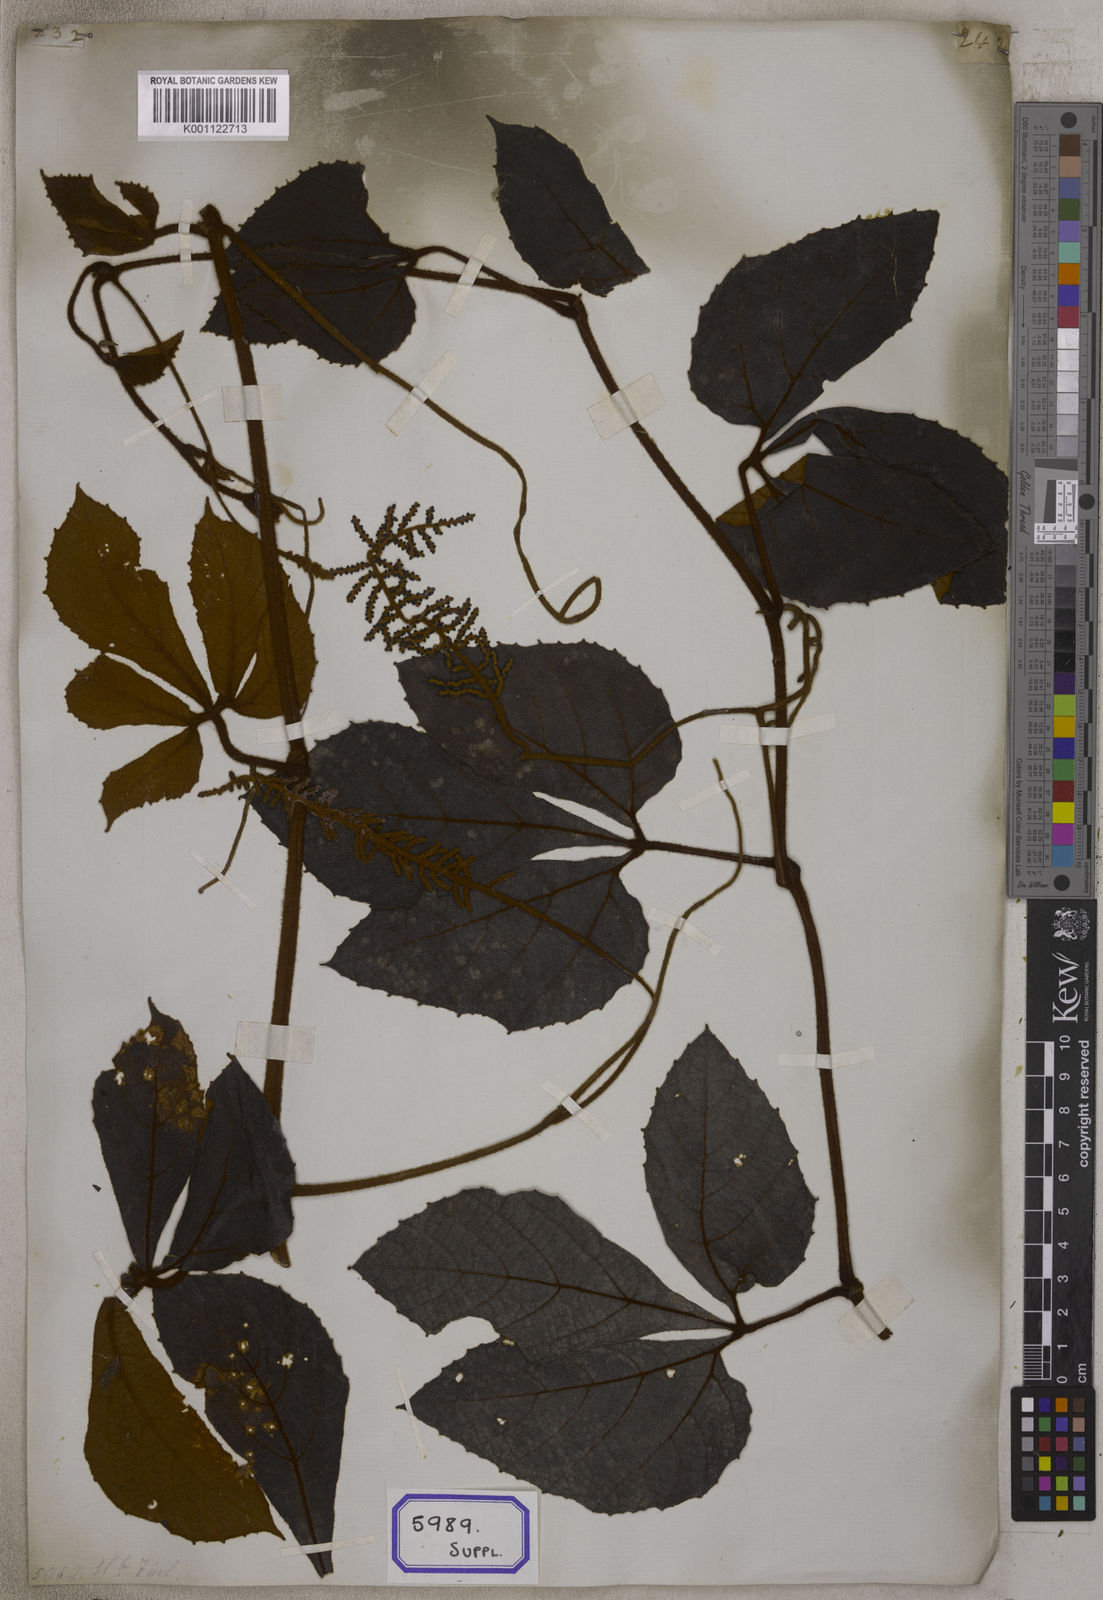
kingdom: Plantae
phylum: Tracheophyta
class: Magnoliopsida
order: Vitales
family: Vitaceae
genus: Ampelocissus
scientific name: Ampelocissus cinnamomea
